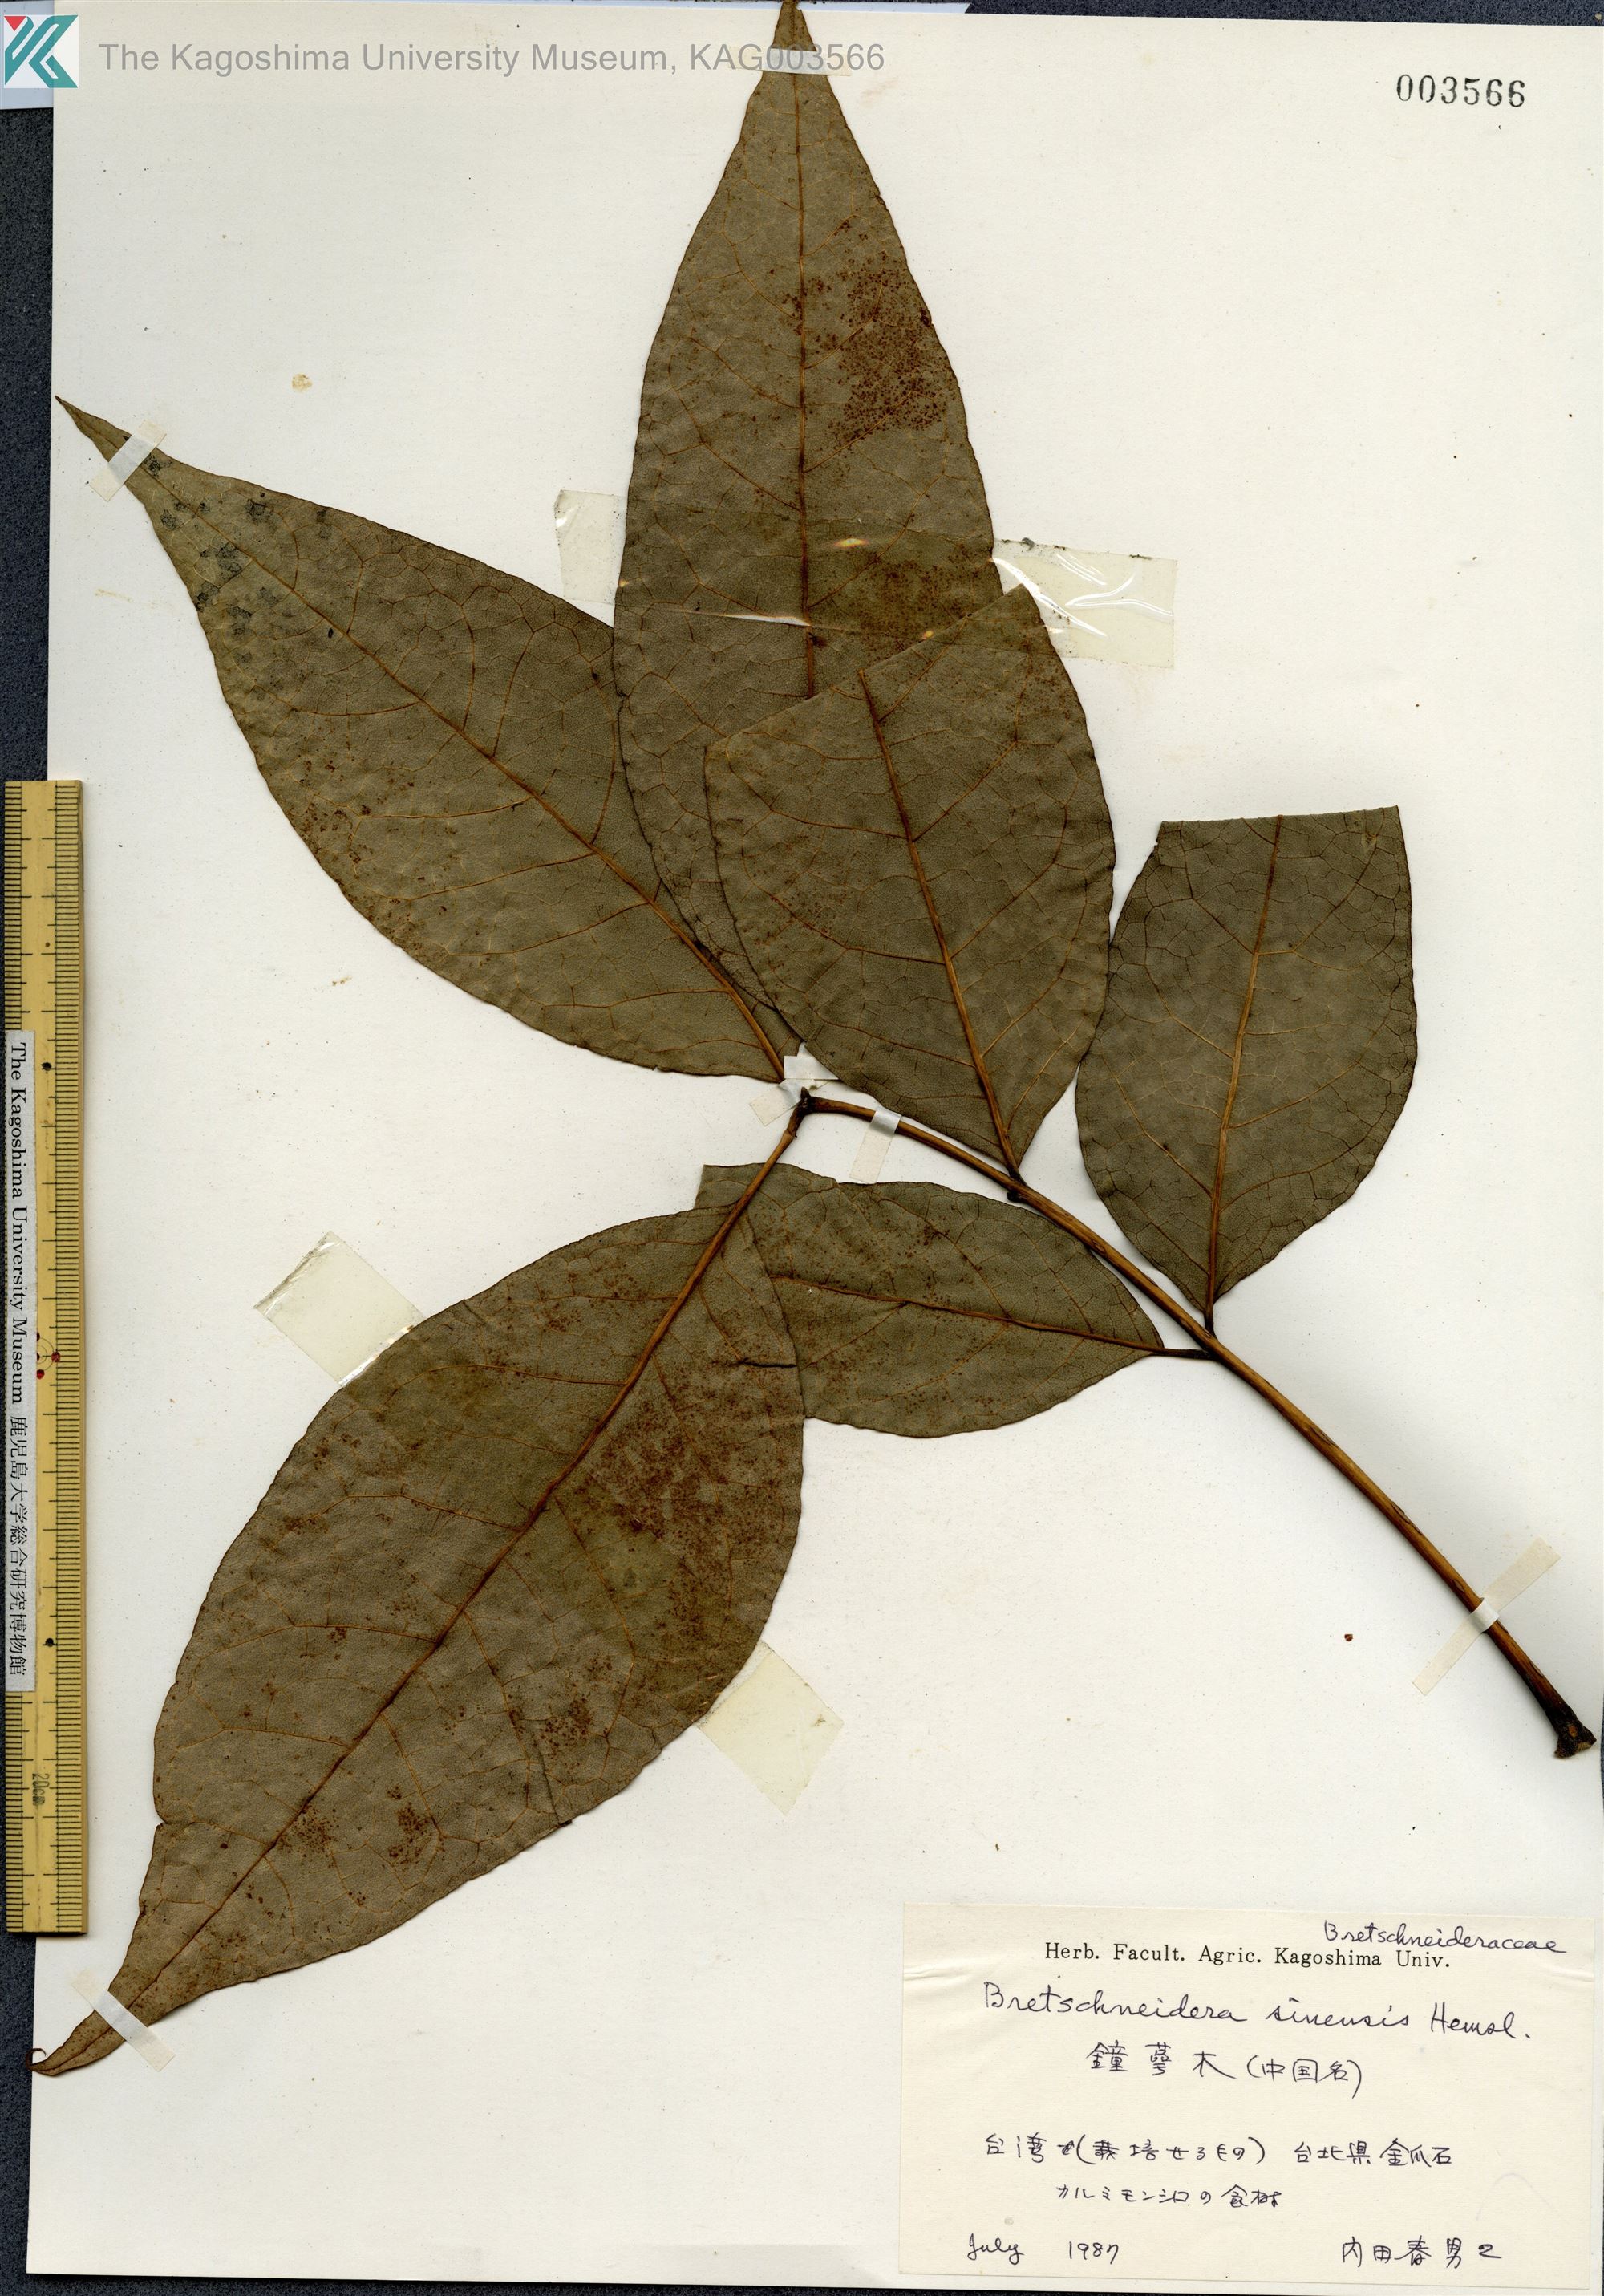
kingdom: Plantae
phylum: Tracheophyta
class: Magnoliopsida
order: Brassicales
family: Akaniaceae
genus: Bretschneidera
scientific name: Bretschneidera sinensis
